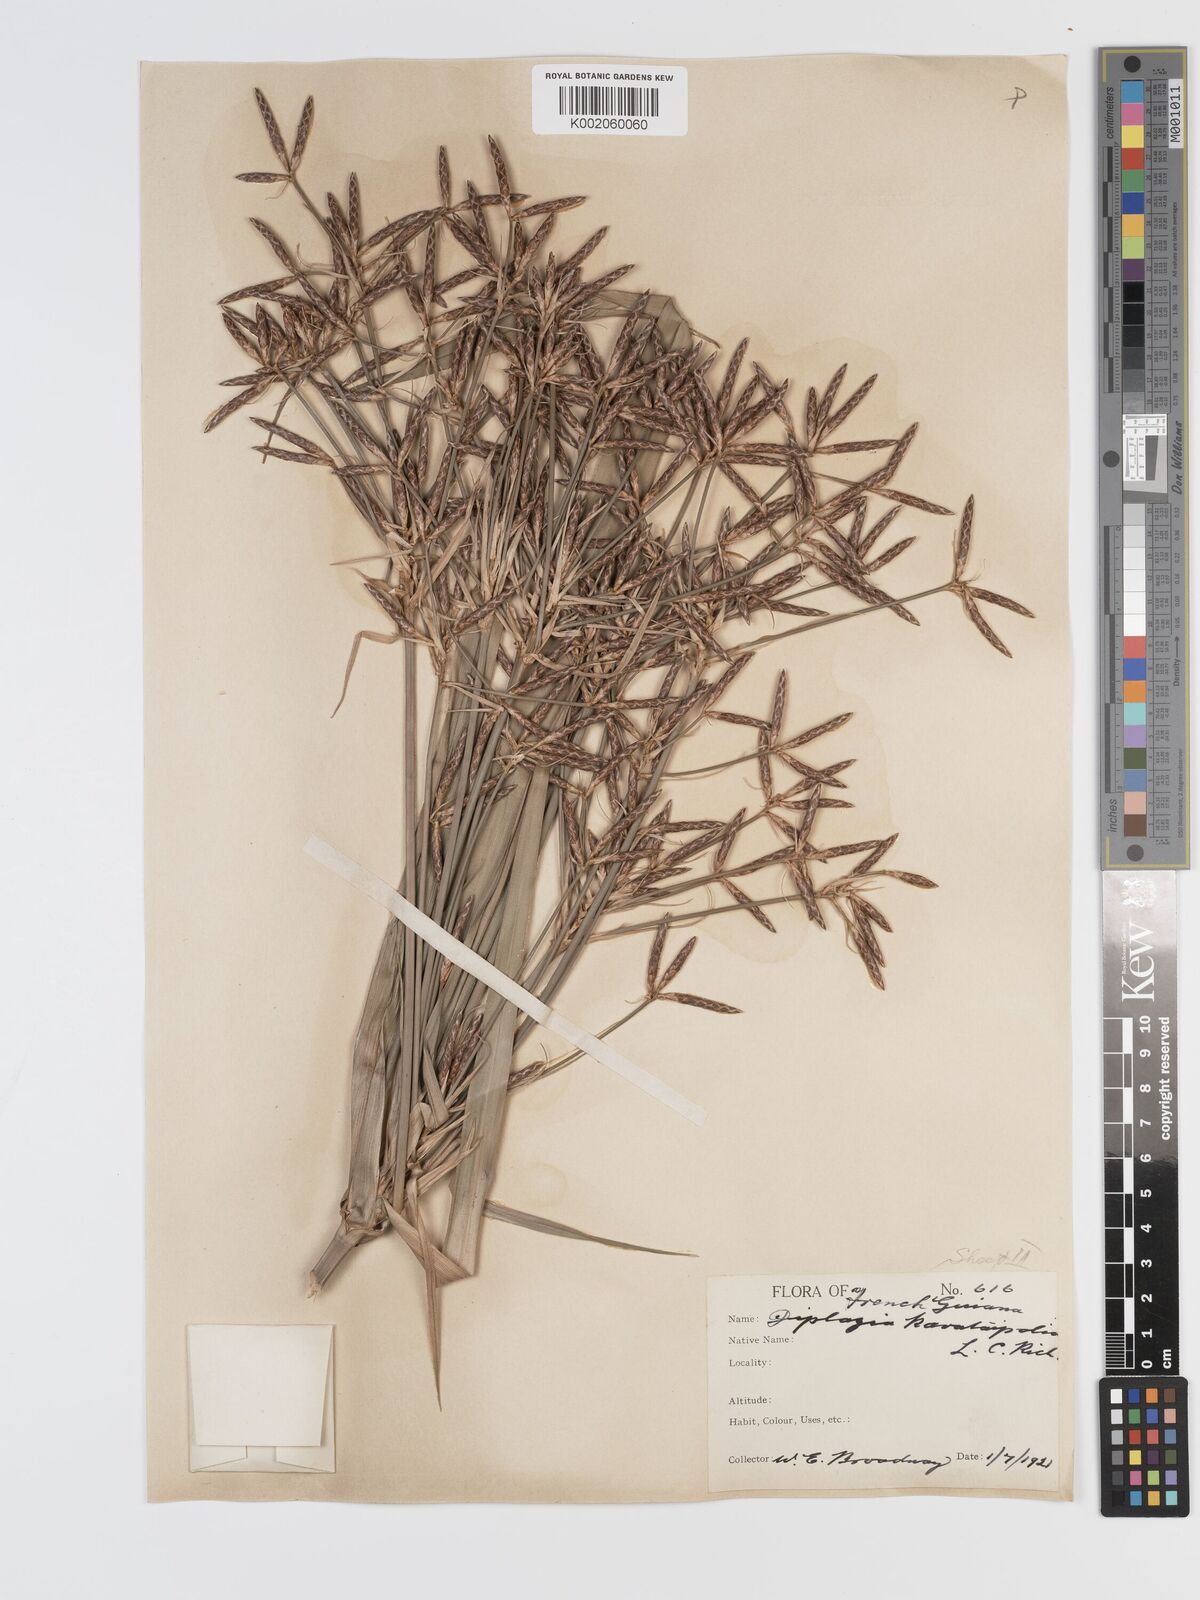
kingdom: Plantae
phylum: Tracheophyta
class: Liliopsida
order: Poales
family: Cyperaceae
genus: Diplasia
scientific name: Diplasia karatifolia
